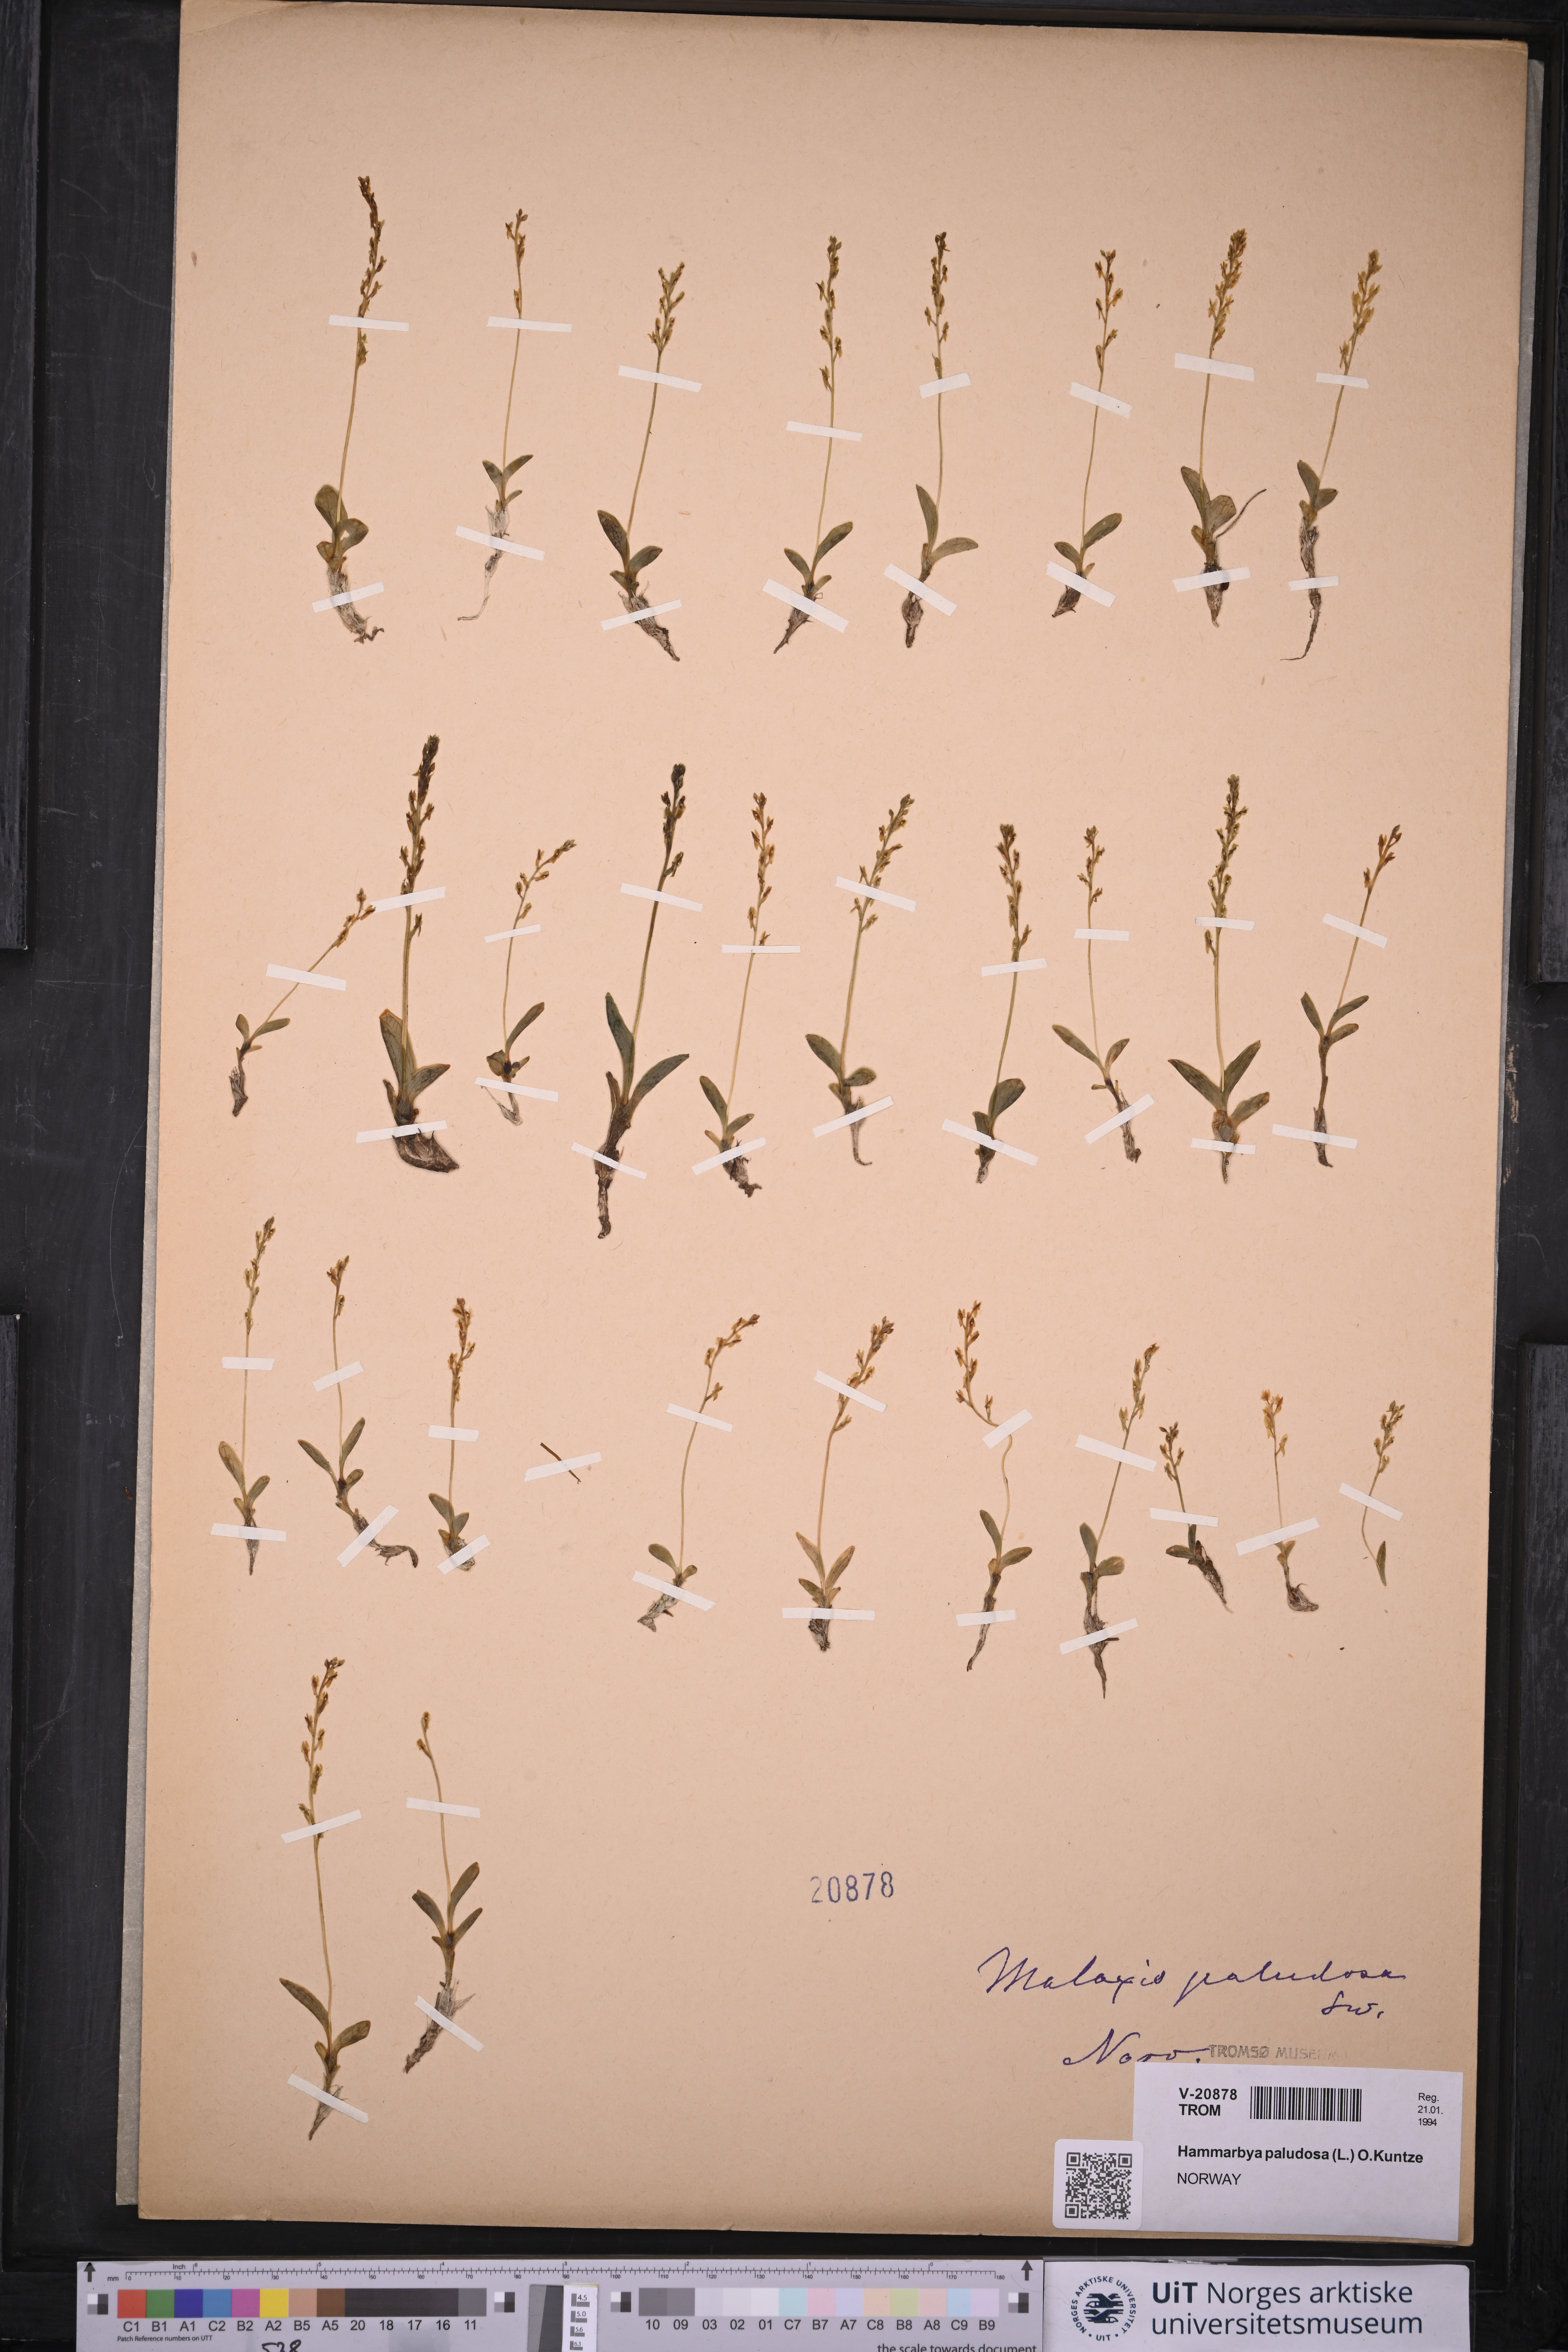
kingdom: Plantae
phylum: Tracheophyta
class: Liliopsida
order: Asparagales
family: Orchidaceae
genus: Hammarbya
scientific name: Hammarbya paludosa
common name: Bog orchid
